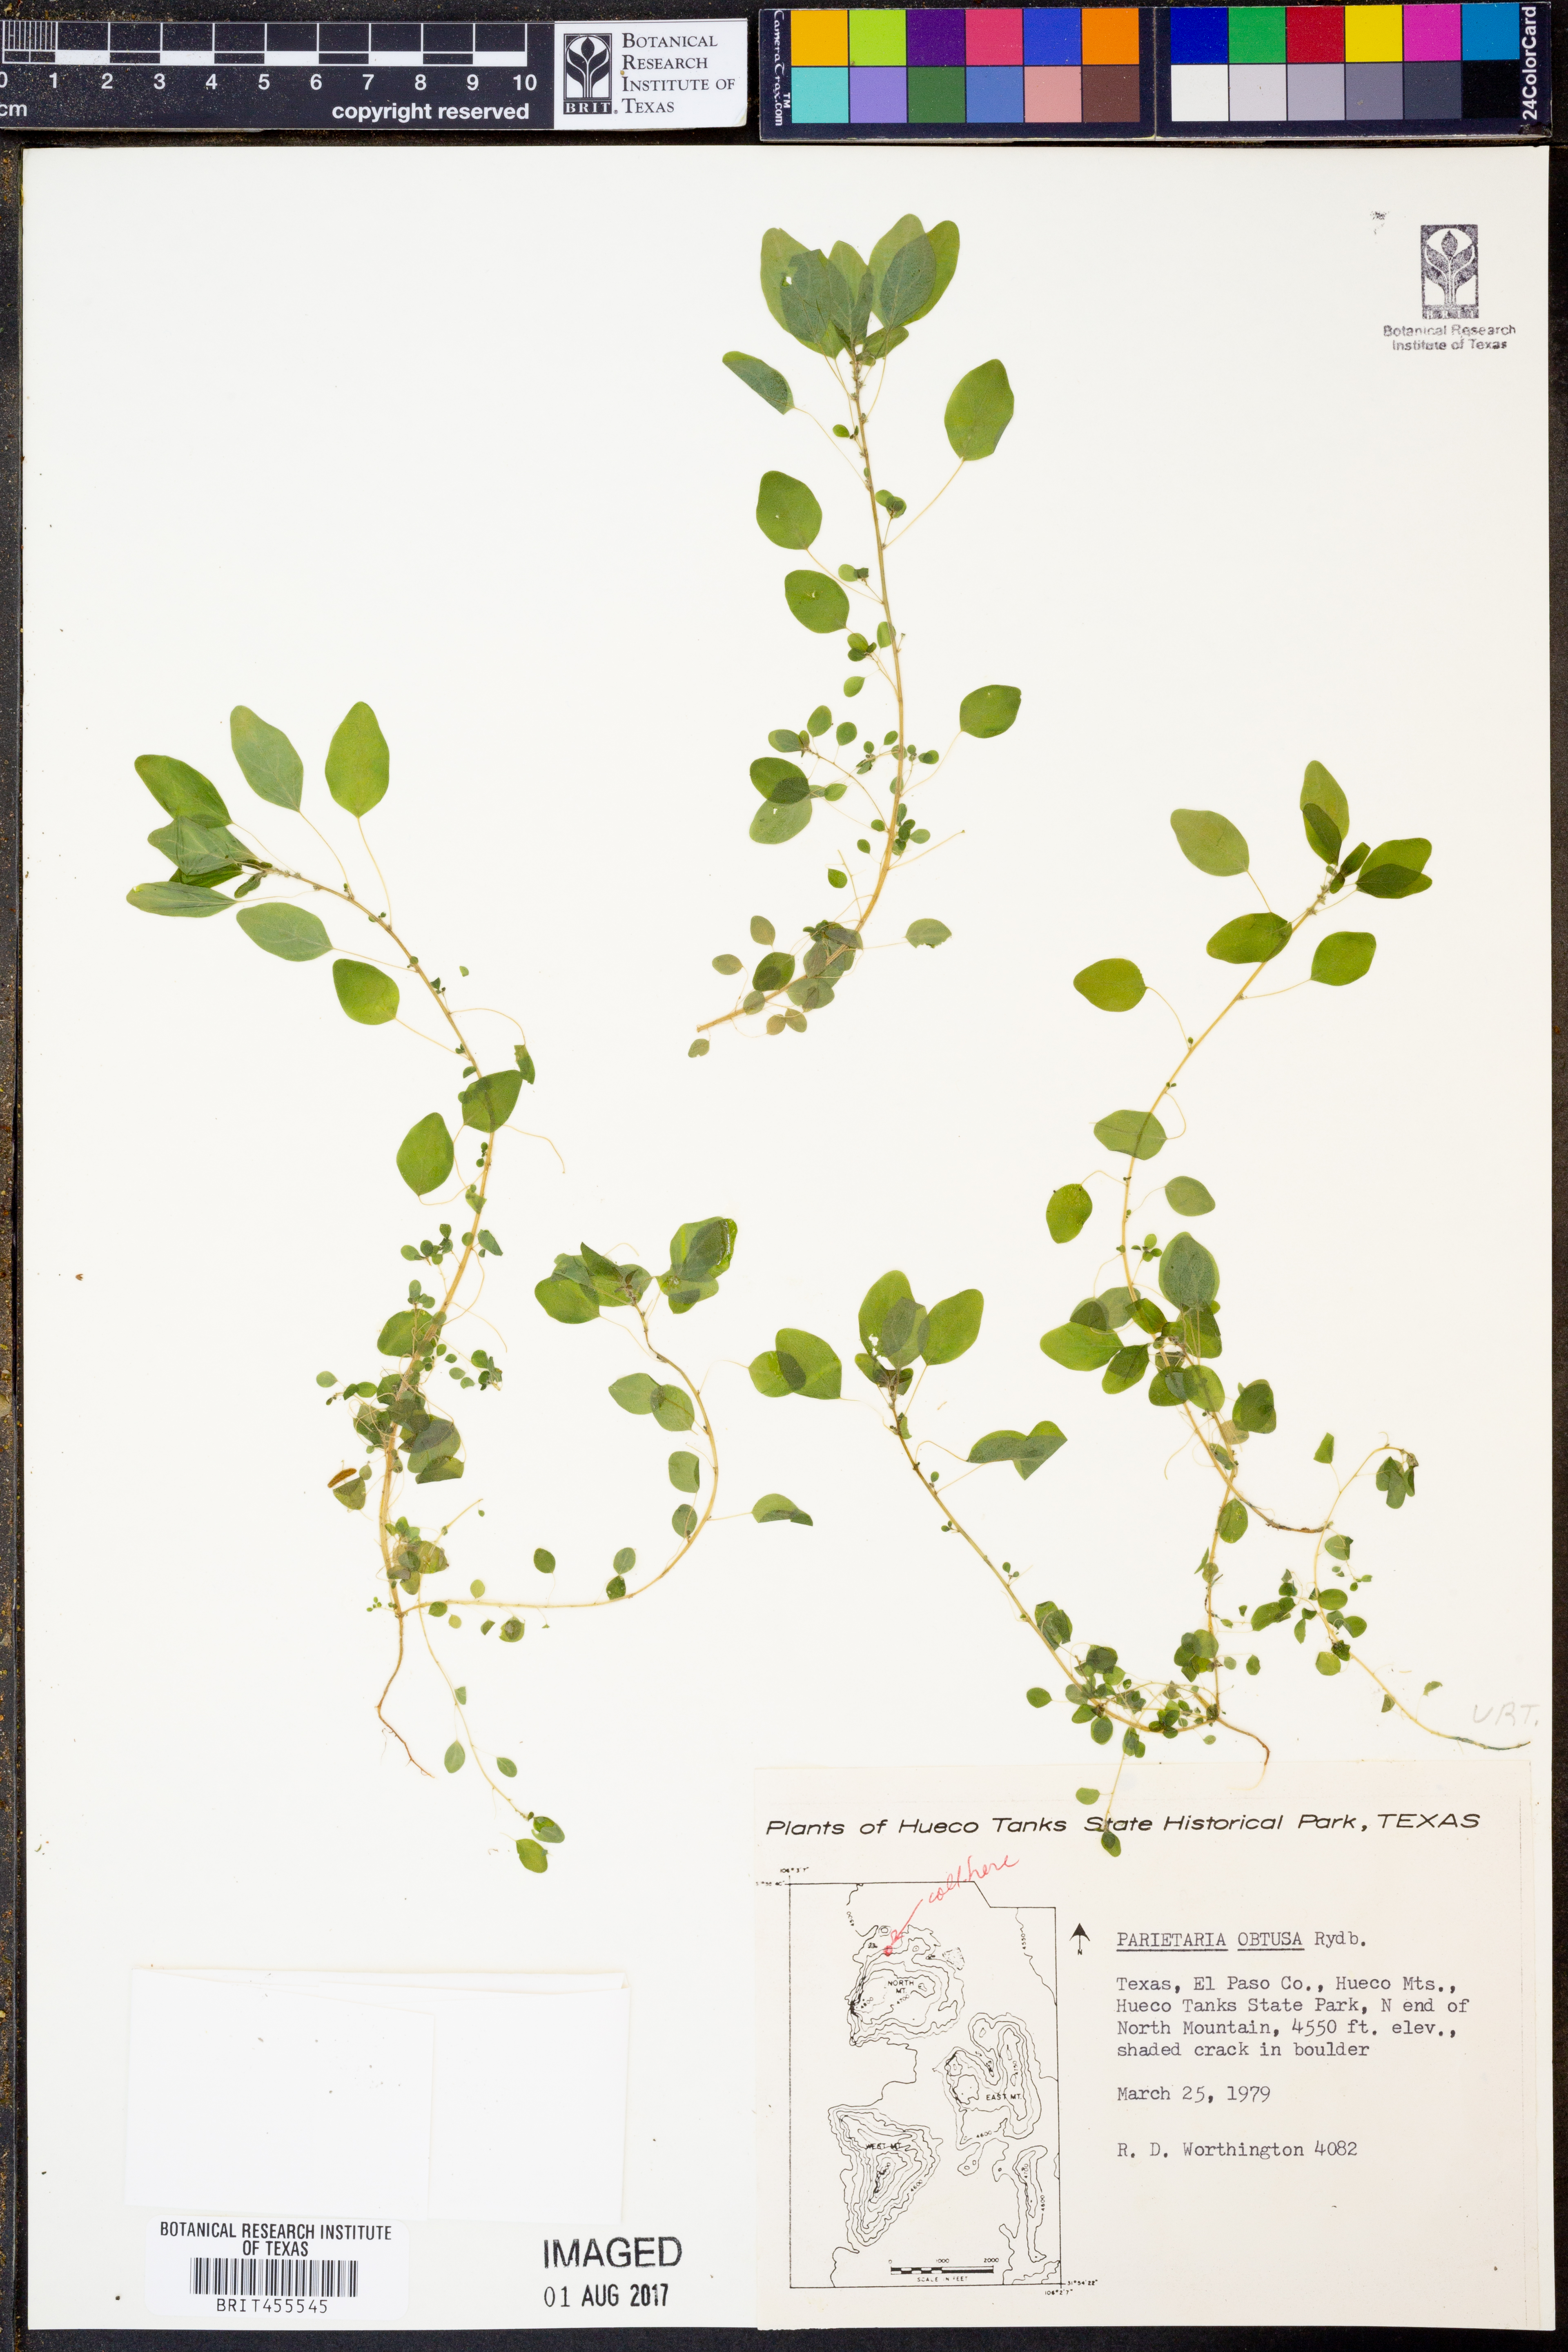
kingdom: Plantae
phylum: Tracheophyta
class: Magnoliopsida
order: Rosales
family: Urticaceae
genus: Parietaria
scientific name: Parietaria pensylvanica
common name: Pennsylvania pellitory
